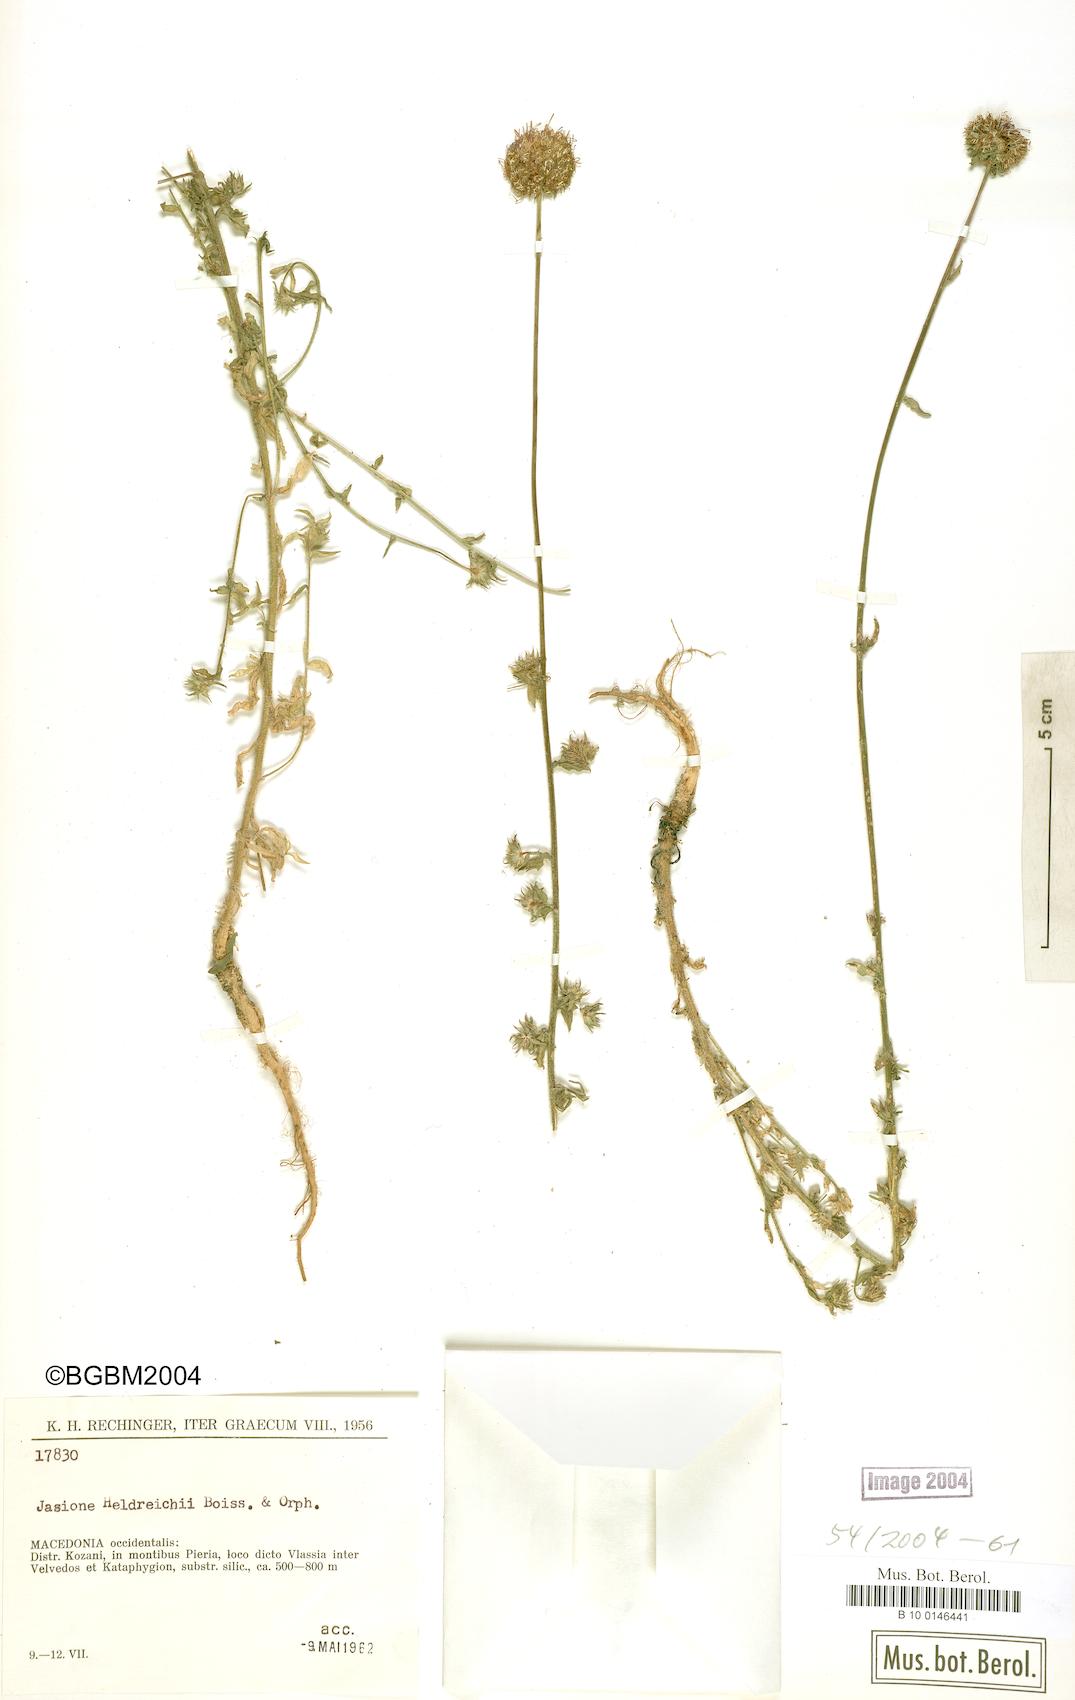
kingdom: Plantae
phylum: Tracheophyta
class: Magnoliopsida
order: Asterales
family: Campanulaceae
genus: Jasione
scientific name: Jasione heldreichii
